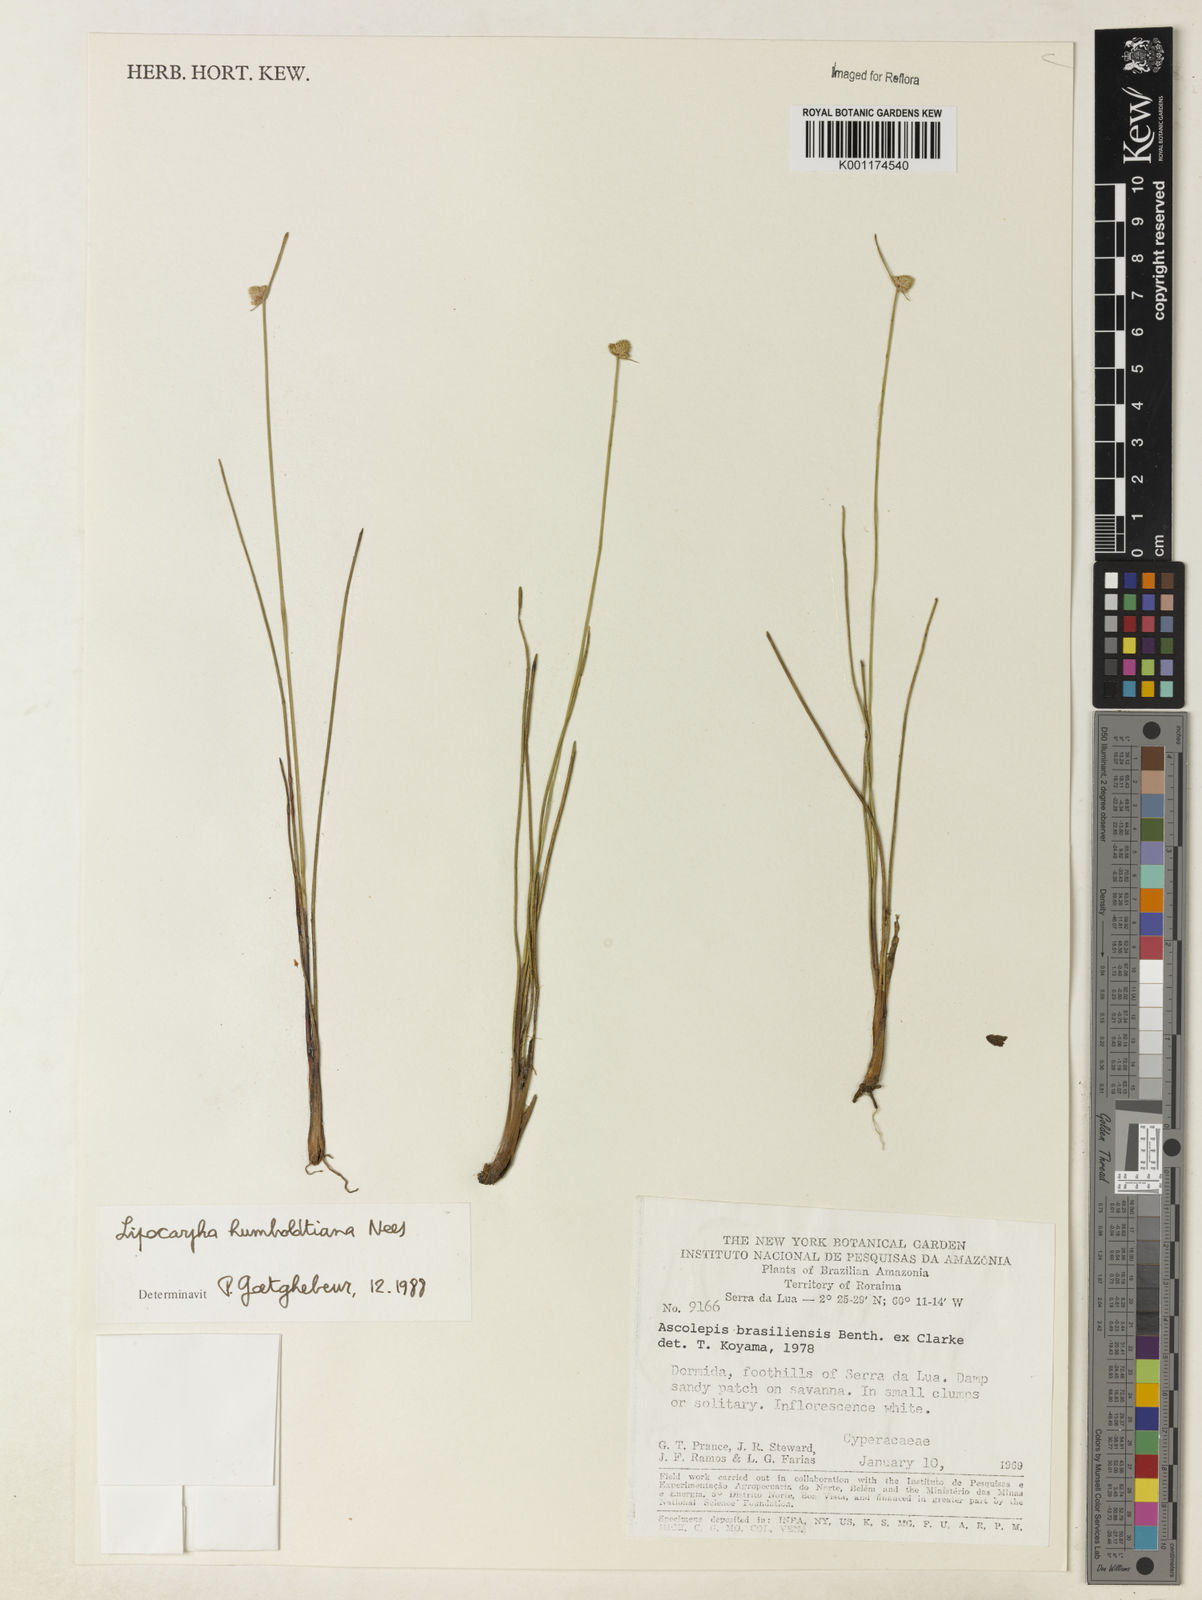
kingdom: Plantae
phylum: Tracheophyta
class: Liliopsida
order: Poales
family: Cyperaceae
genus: Cyperus
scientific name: Cyperus lanceolatus
